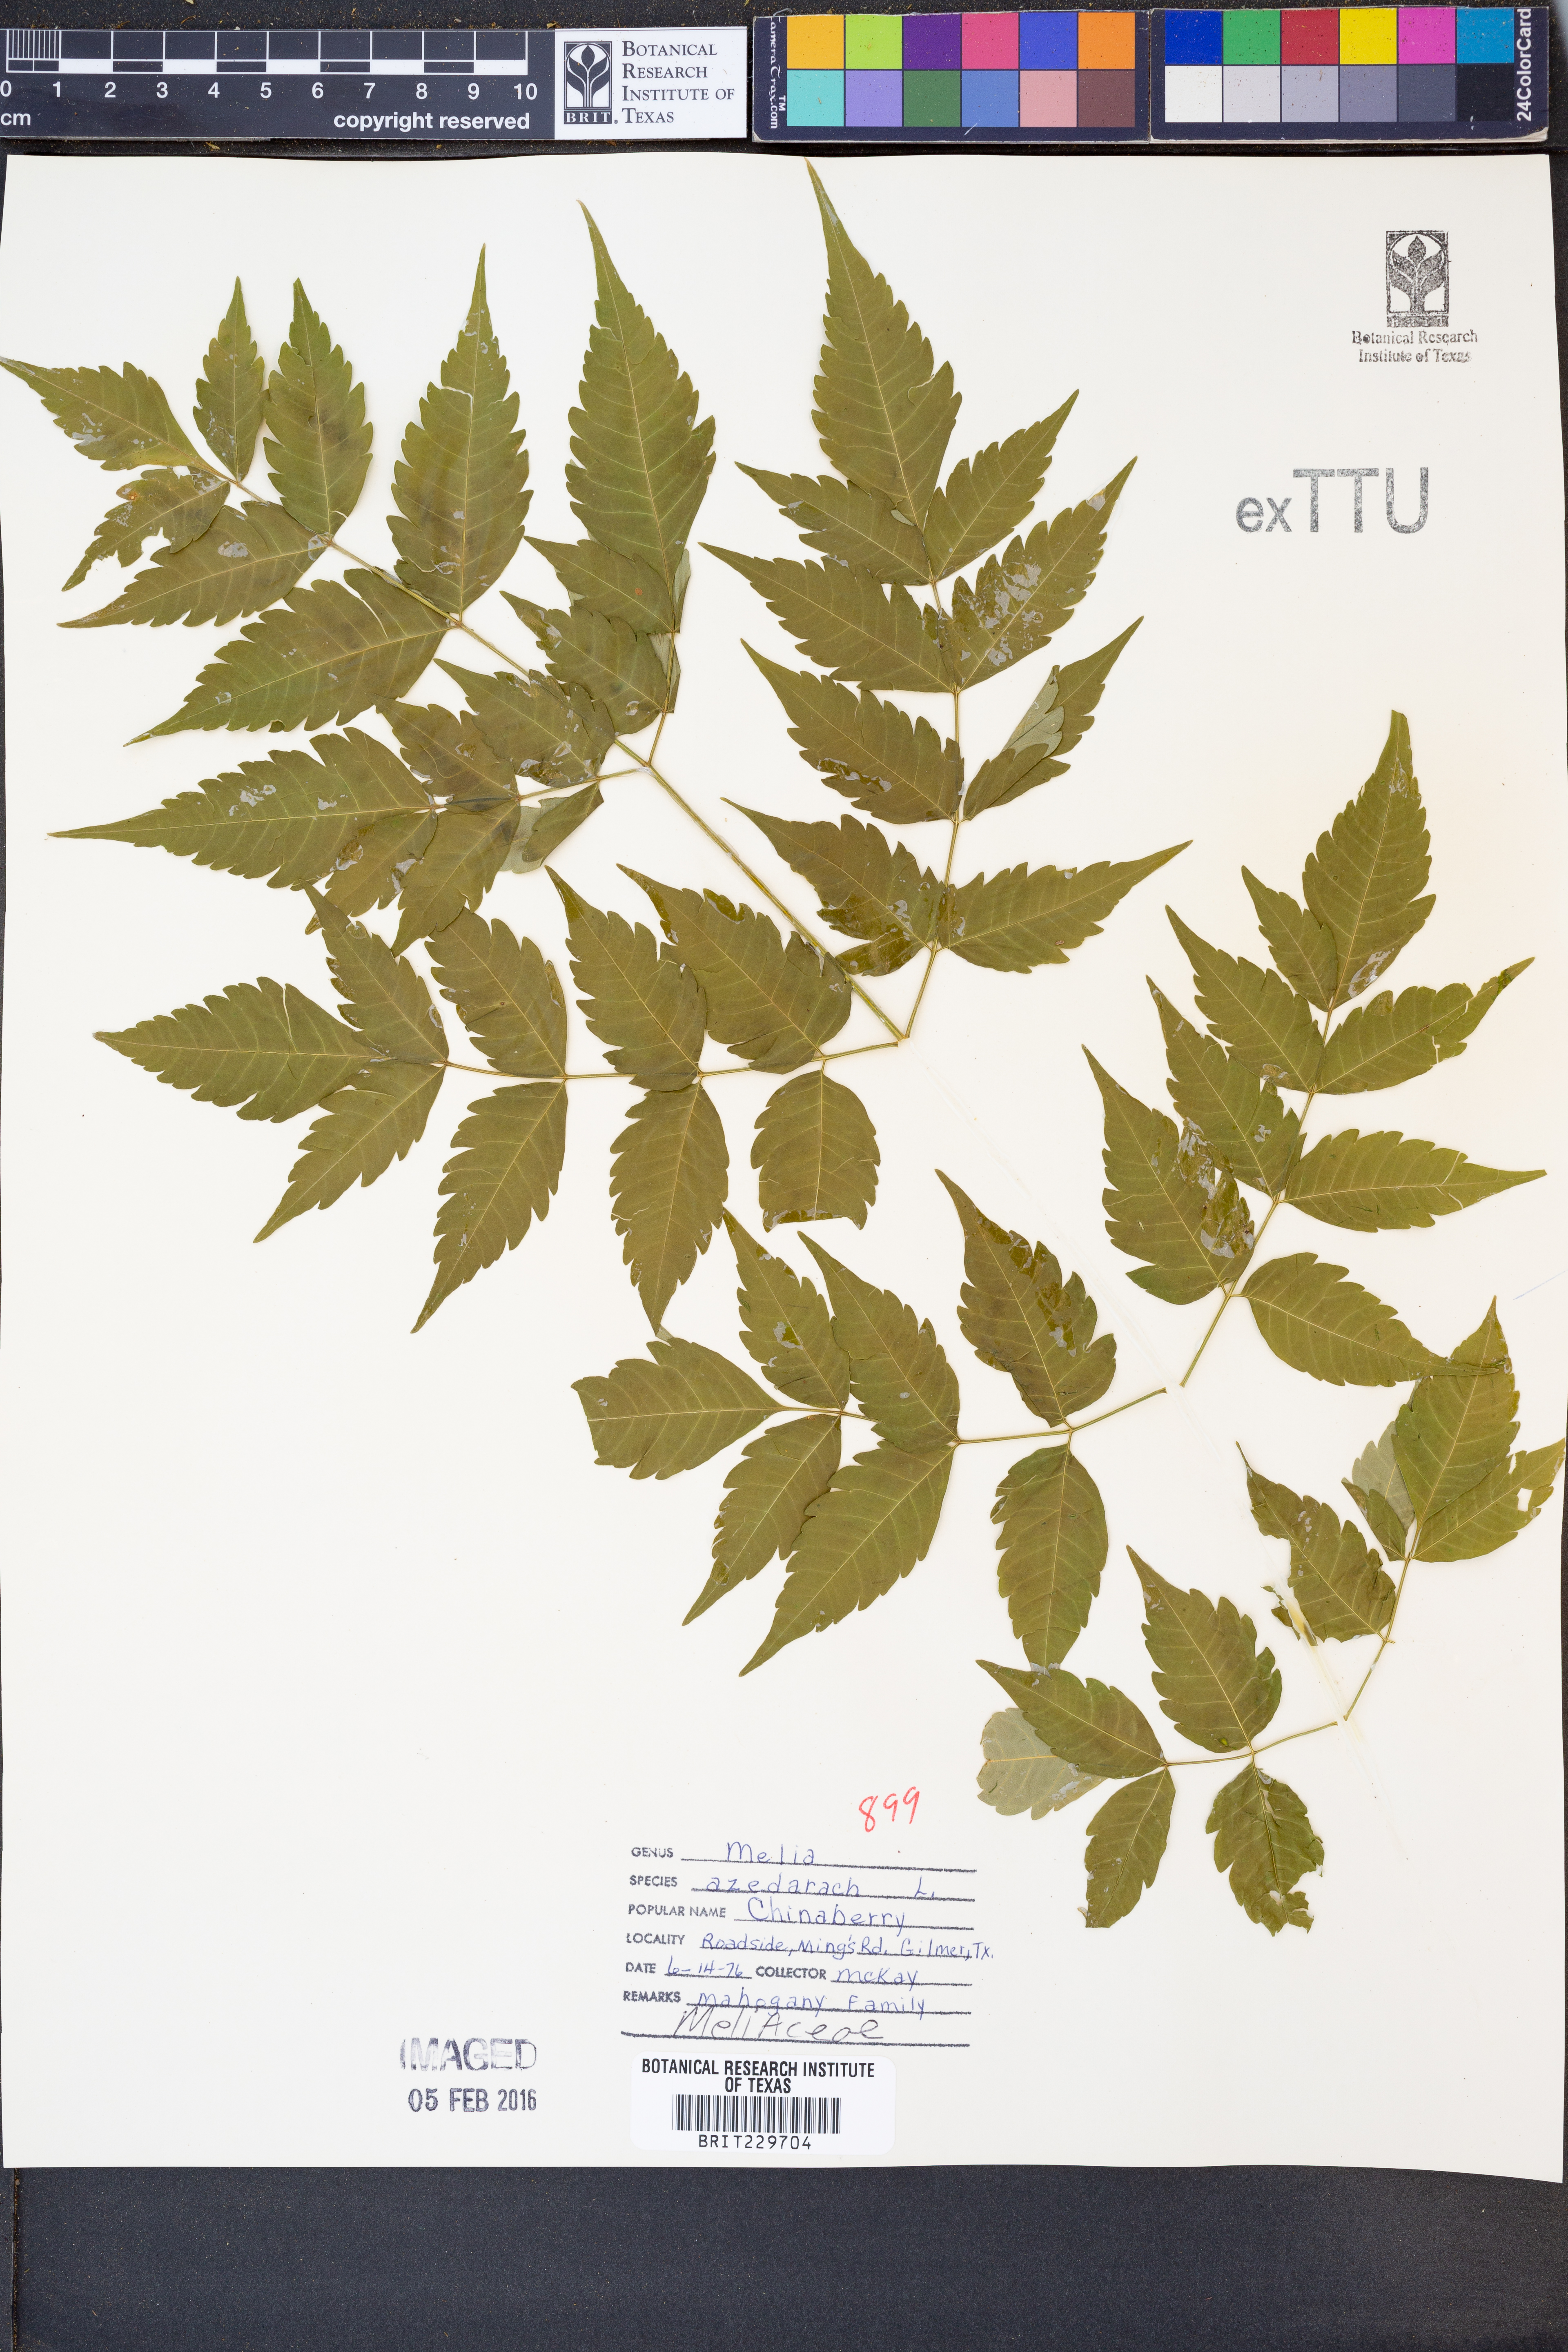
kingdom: Plantae
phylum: Tracheophyta
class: Magnoliopsida
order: Sapindales
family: Meliaceae
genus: Melia
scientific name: Melia azedarach
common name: Chinaberrytree
